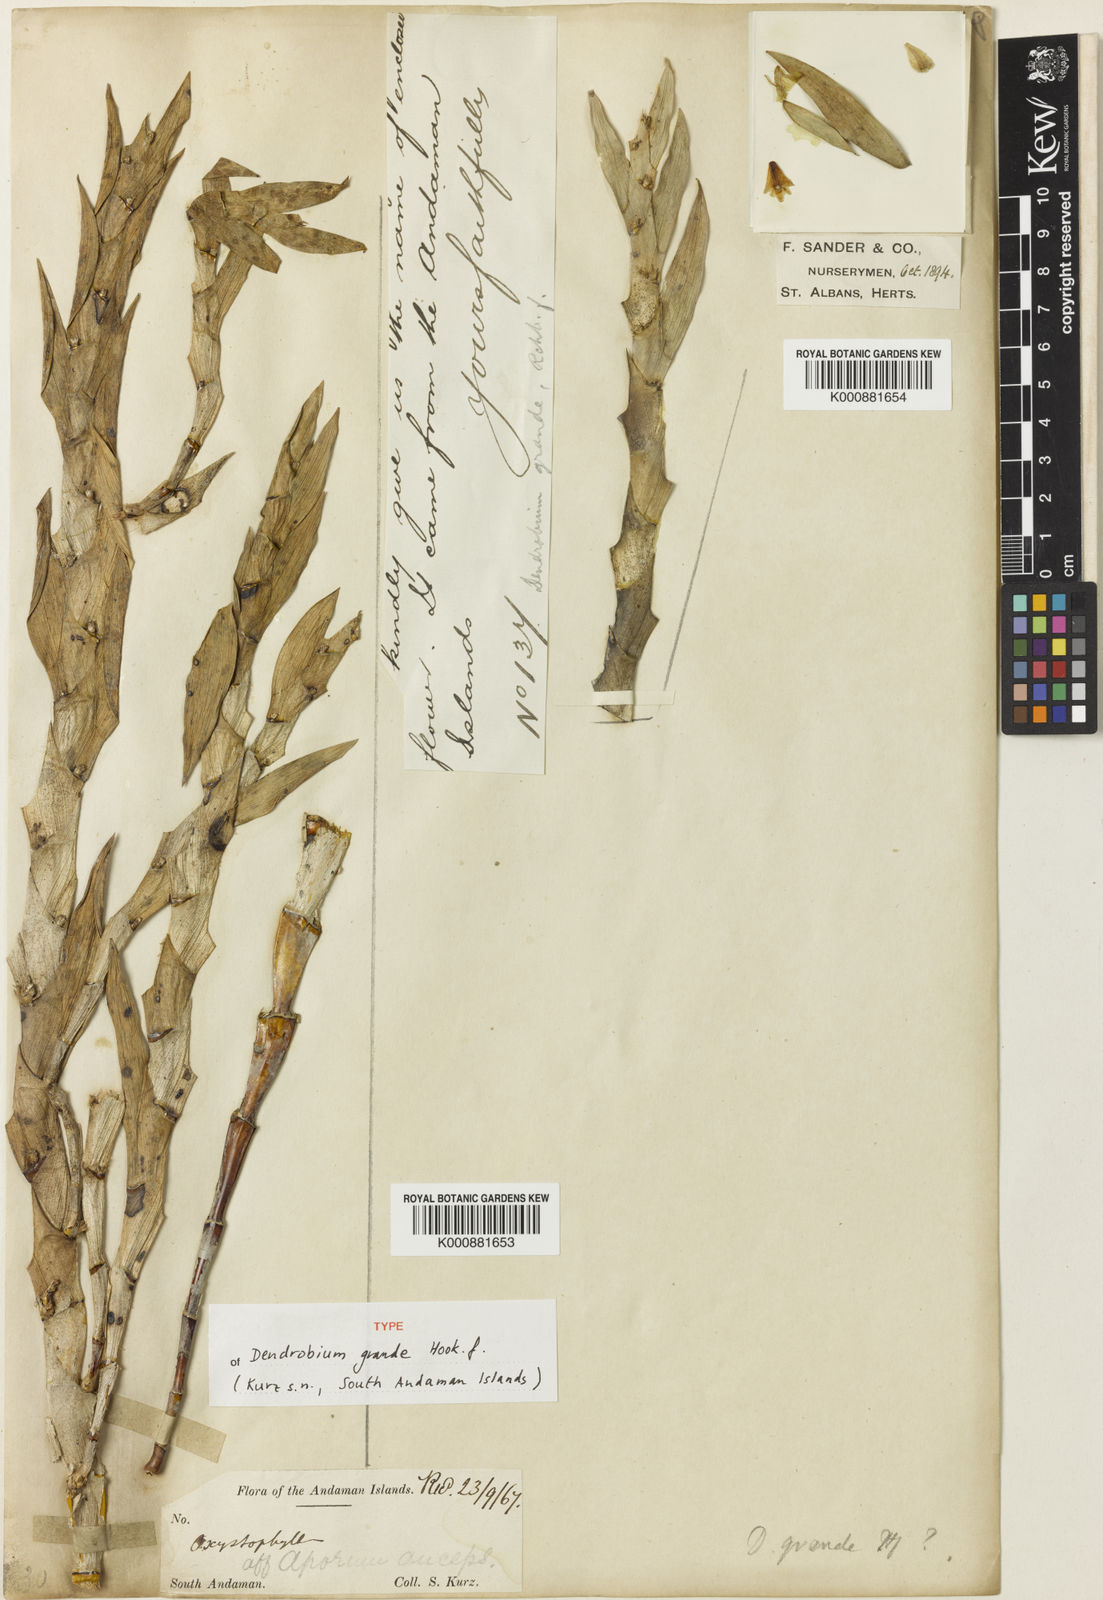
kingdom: Plantae
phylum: Tracheophyta
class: Liliopsida
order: Asparagales
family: Orchidaceae
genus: Dendrobium
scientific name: Dendrobium grande
